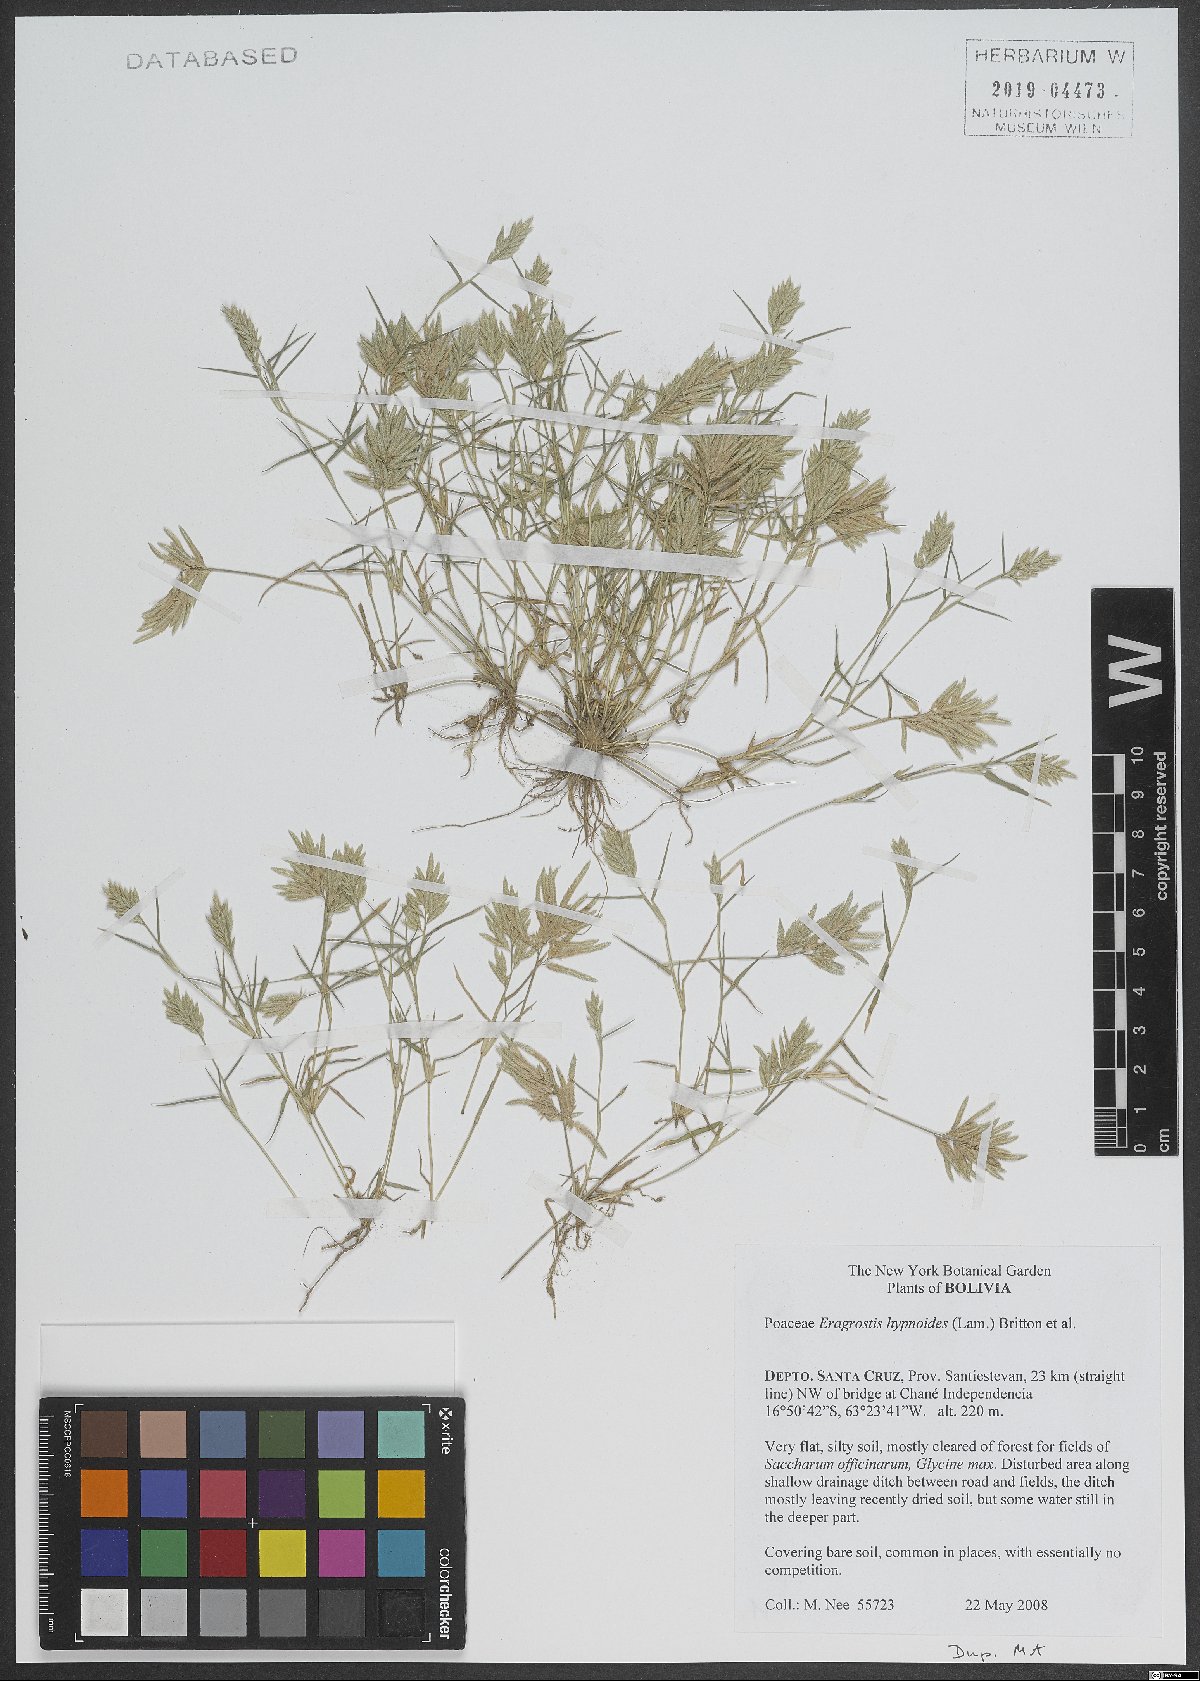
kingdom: Plantae
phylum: Tracheophyta
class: Liliopsida
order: Poales
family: Poaceae
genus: Eragrostis
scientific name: Eragrostis hypnoides
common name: Creeping love grass
